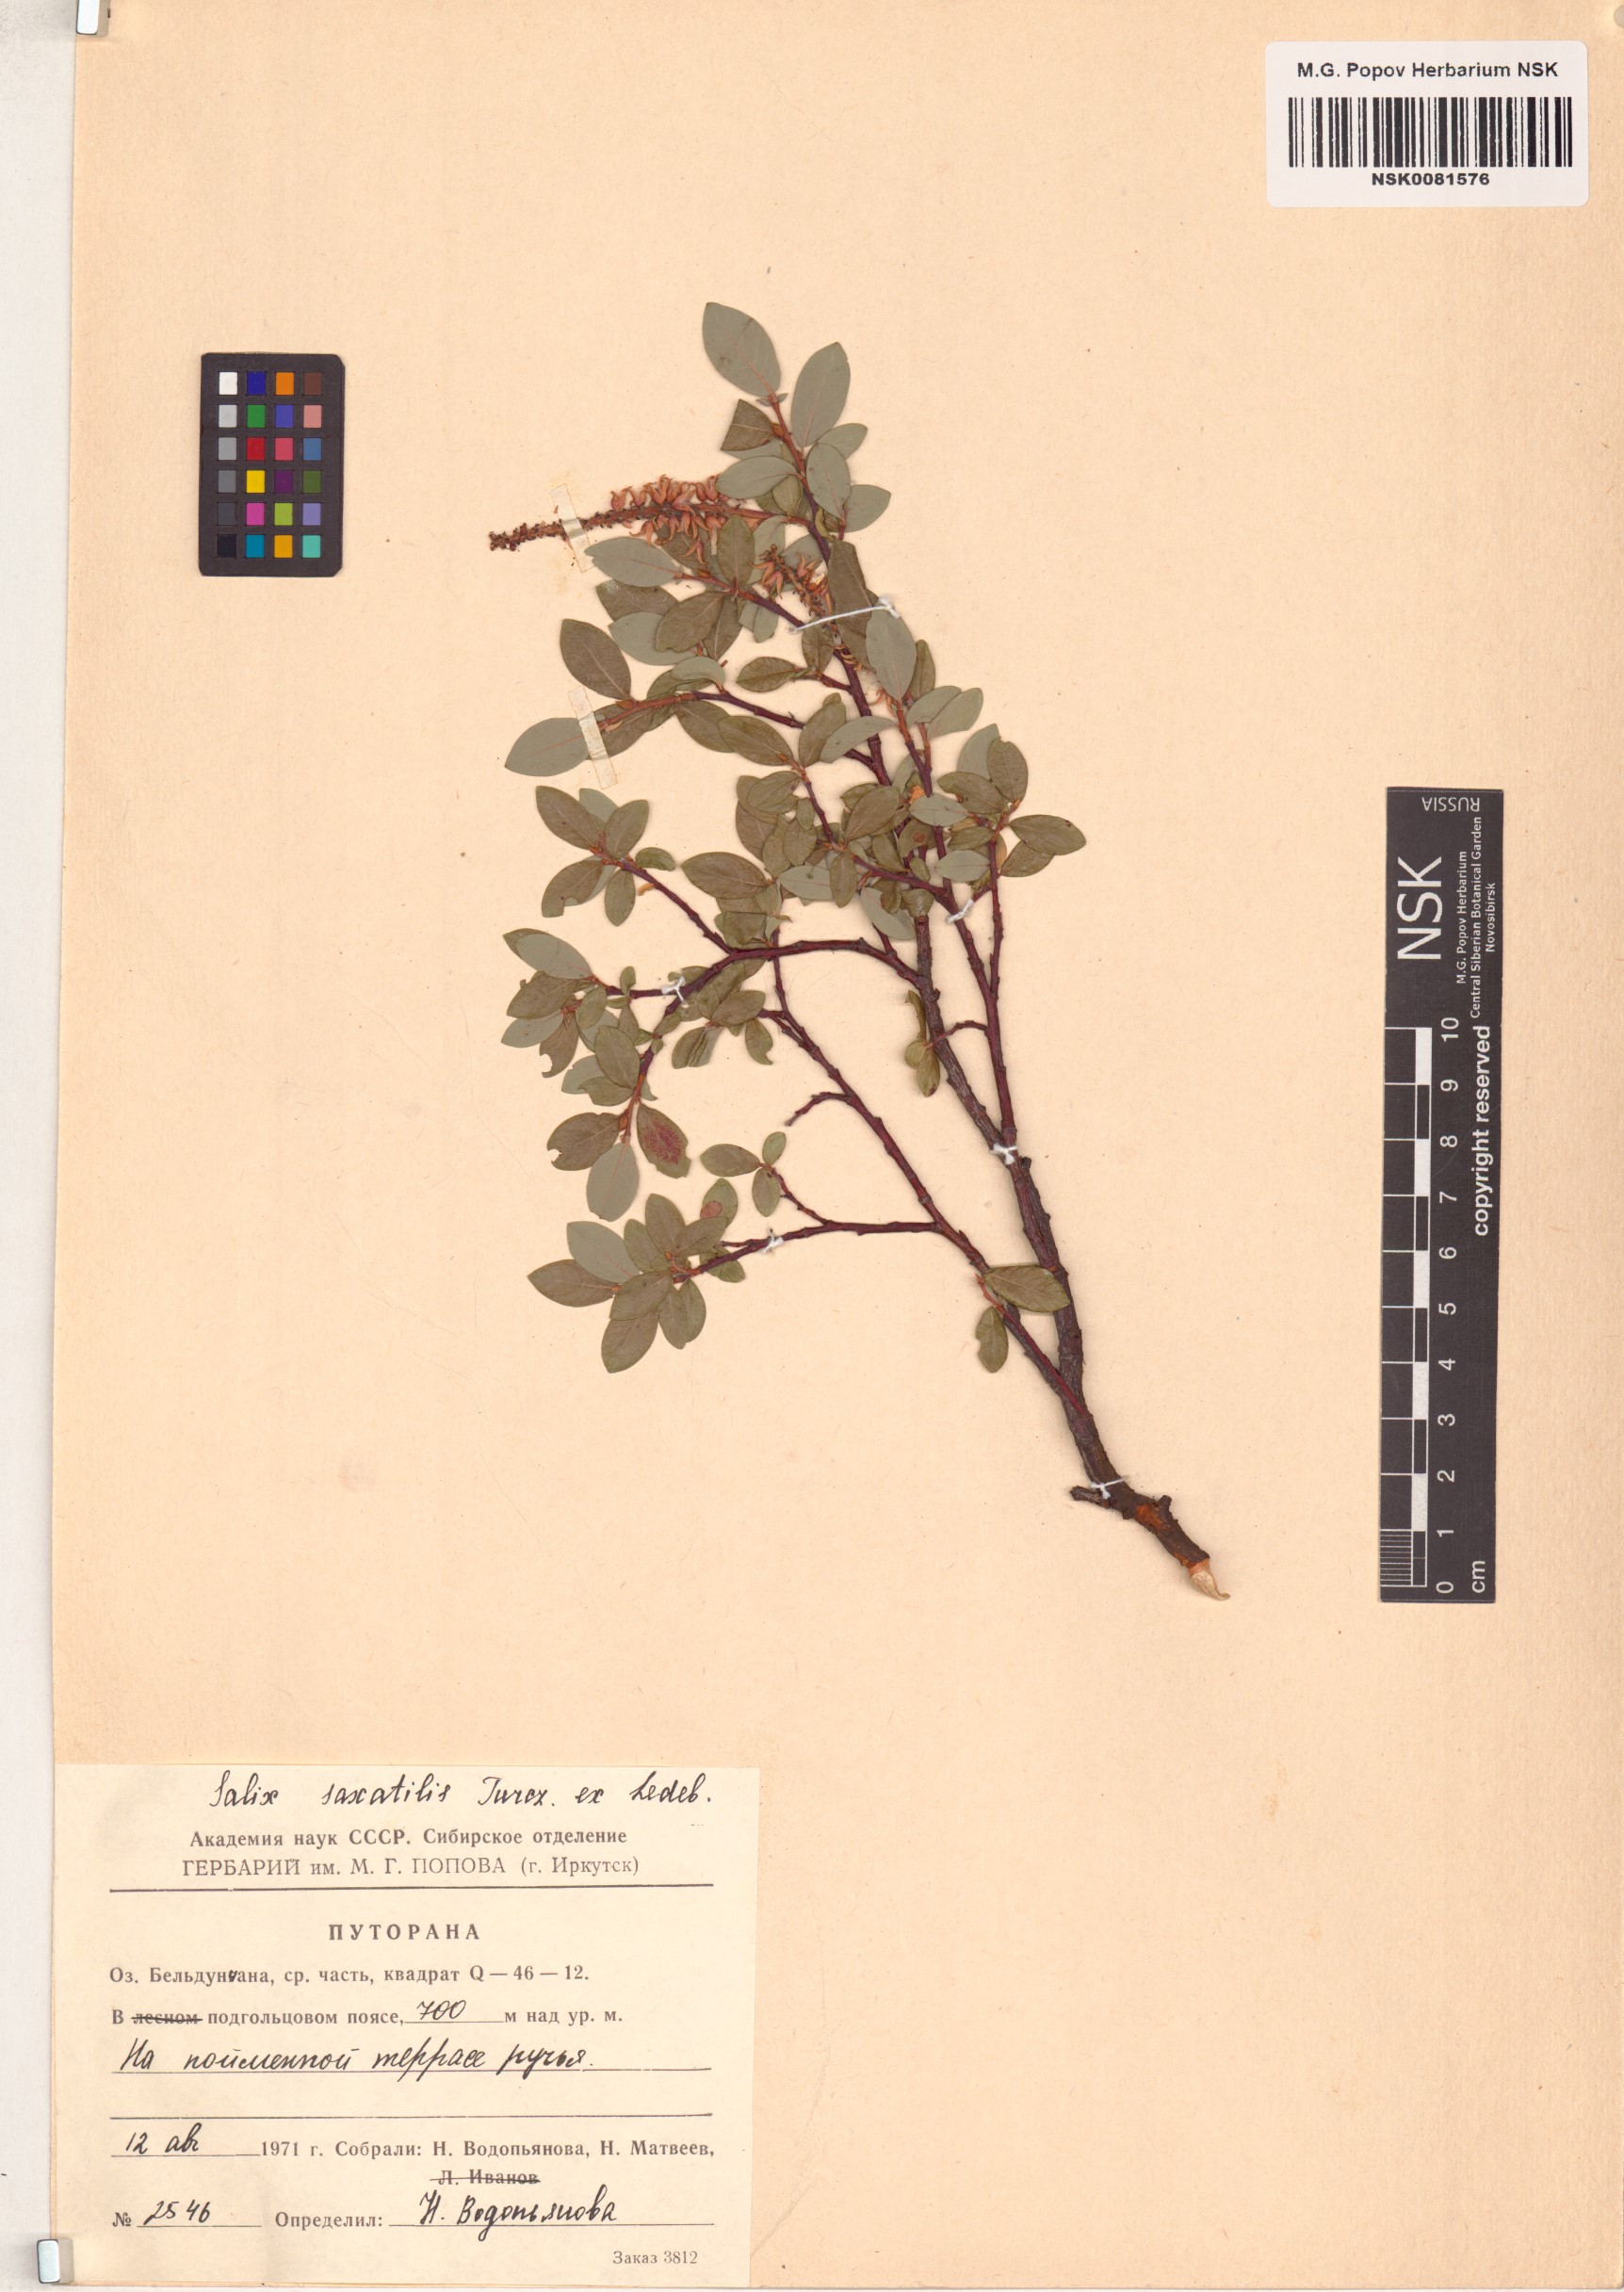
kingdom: Plantae
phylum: Tracheophyta
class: Magnoliopsida
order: Malpighiales
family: Salicaceae
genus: Salix
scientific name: Salix saxatilis
